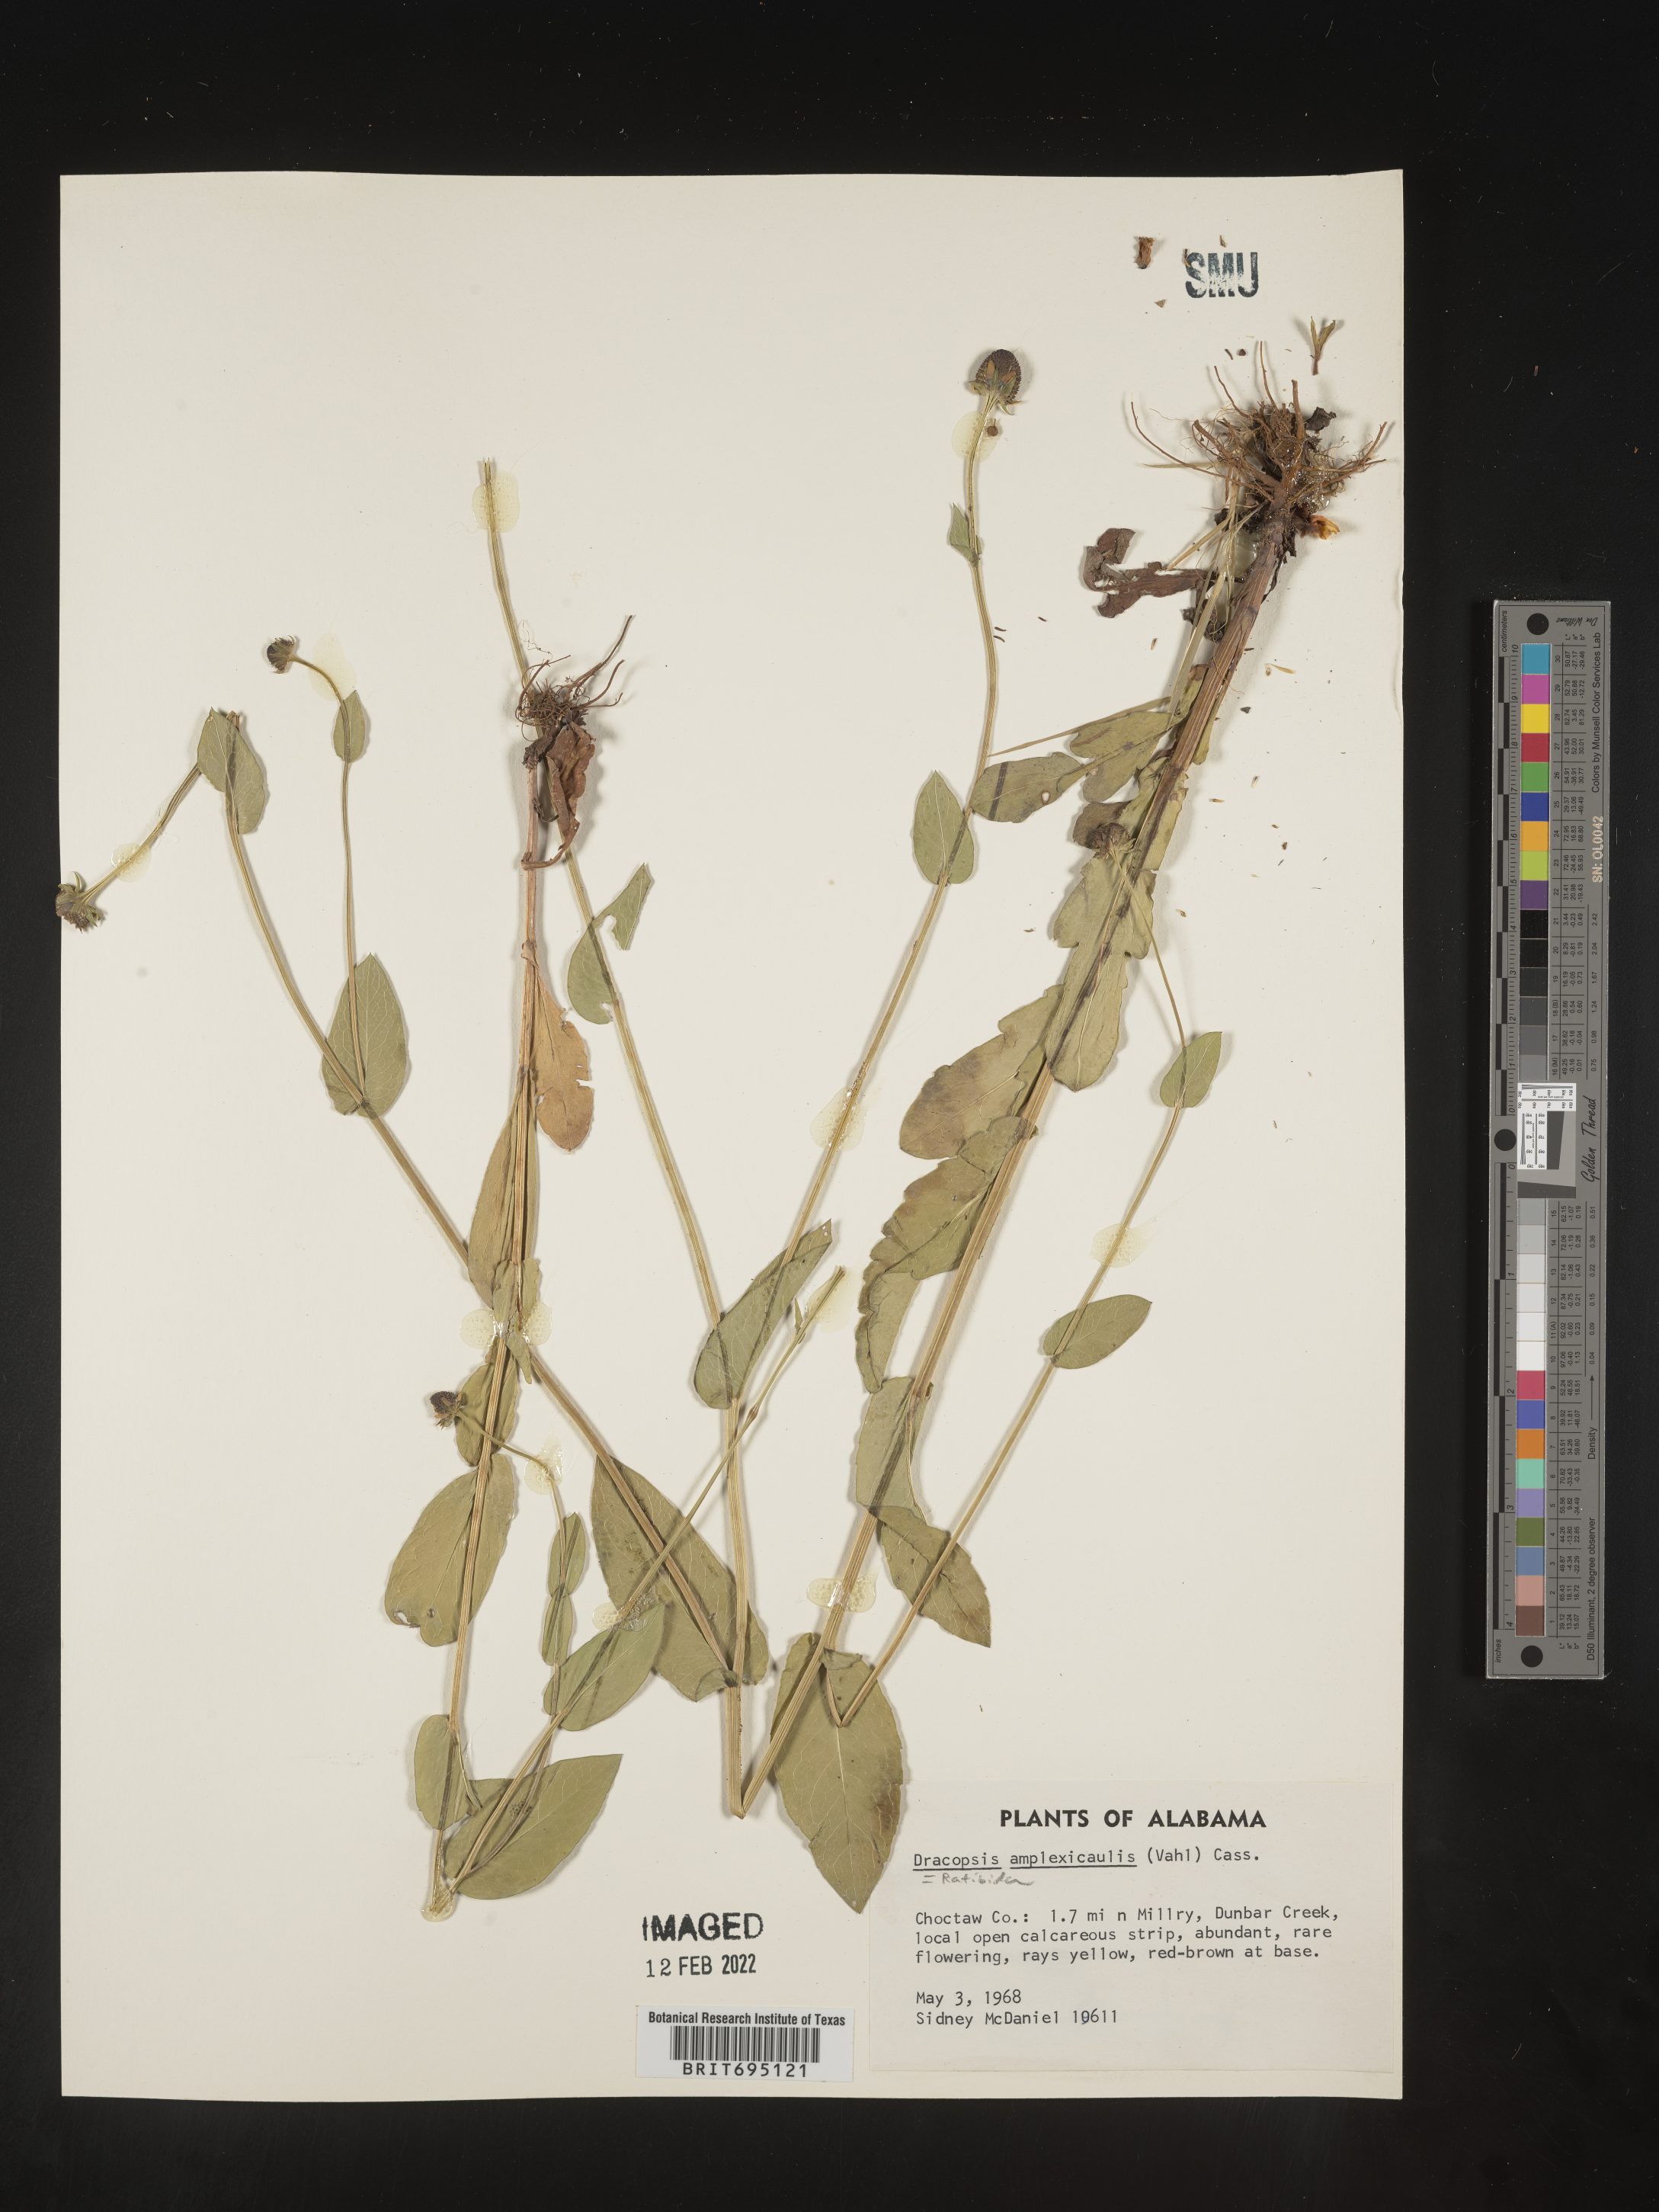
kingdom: Plantae
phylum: Tracheophyta
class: Magnoliopsida
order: Asterales
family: Asteraceae
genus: Rudbeckia
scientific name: Rudbeckia amplexicaulis
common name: Clasping-leaf coneflower
